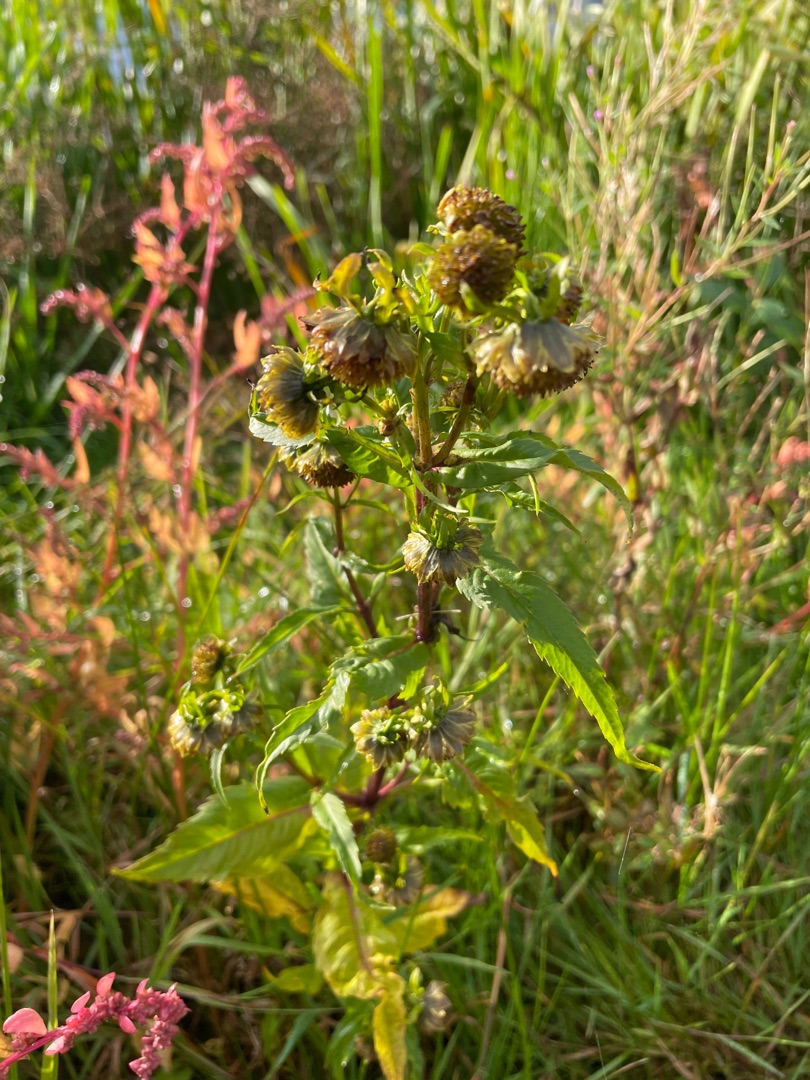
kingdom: Plantae
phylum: Tracheophyta
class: Magnoliopsida
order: Asterales
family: Asteraceae
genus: Bidens
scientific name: Bidens cernua
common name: Nikkende brøndsel
